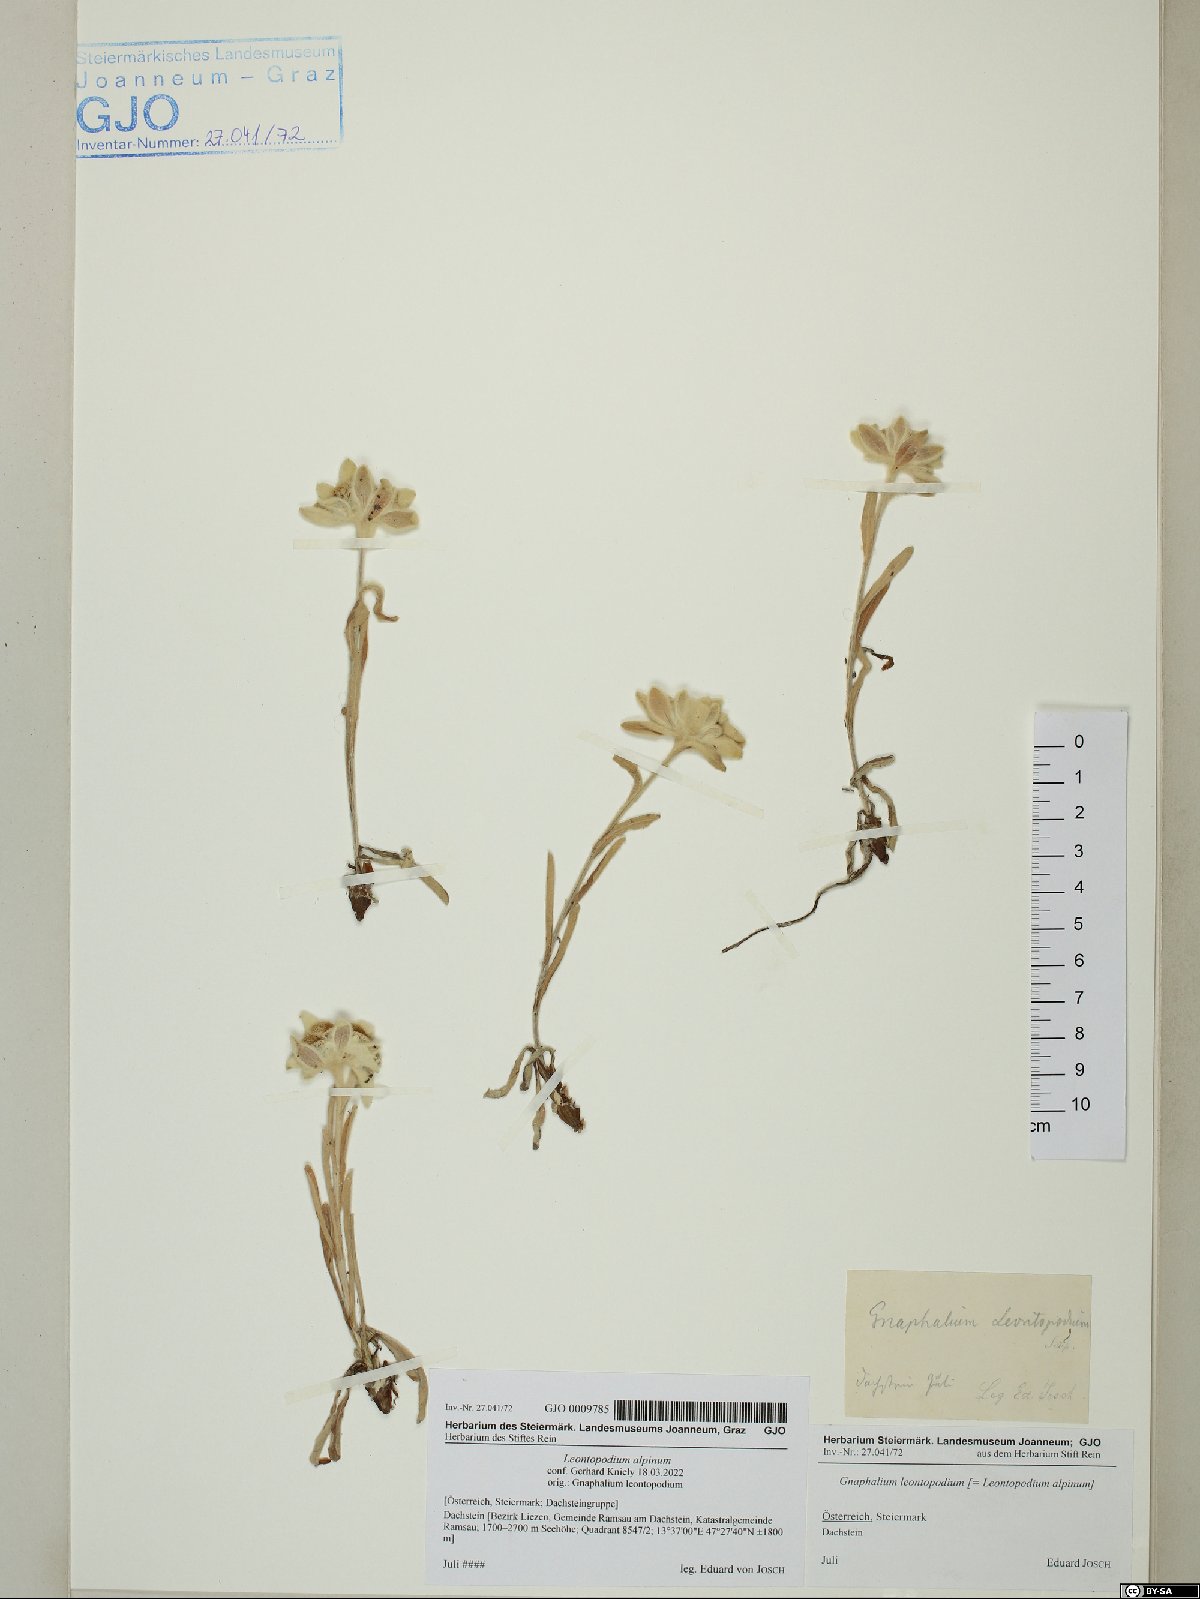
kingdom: Plantae
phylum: Tracheophyta
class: Magnoliopsida
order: Asterales
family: Asteraceae
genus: Leontopodium
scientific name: Leontopodium nivale
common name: Edelweiss
